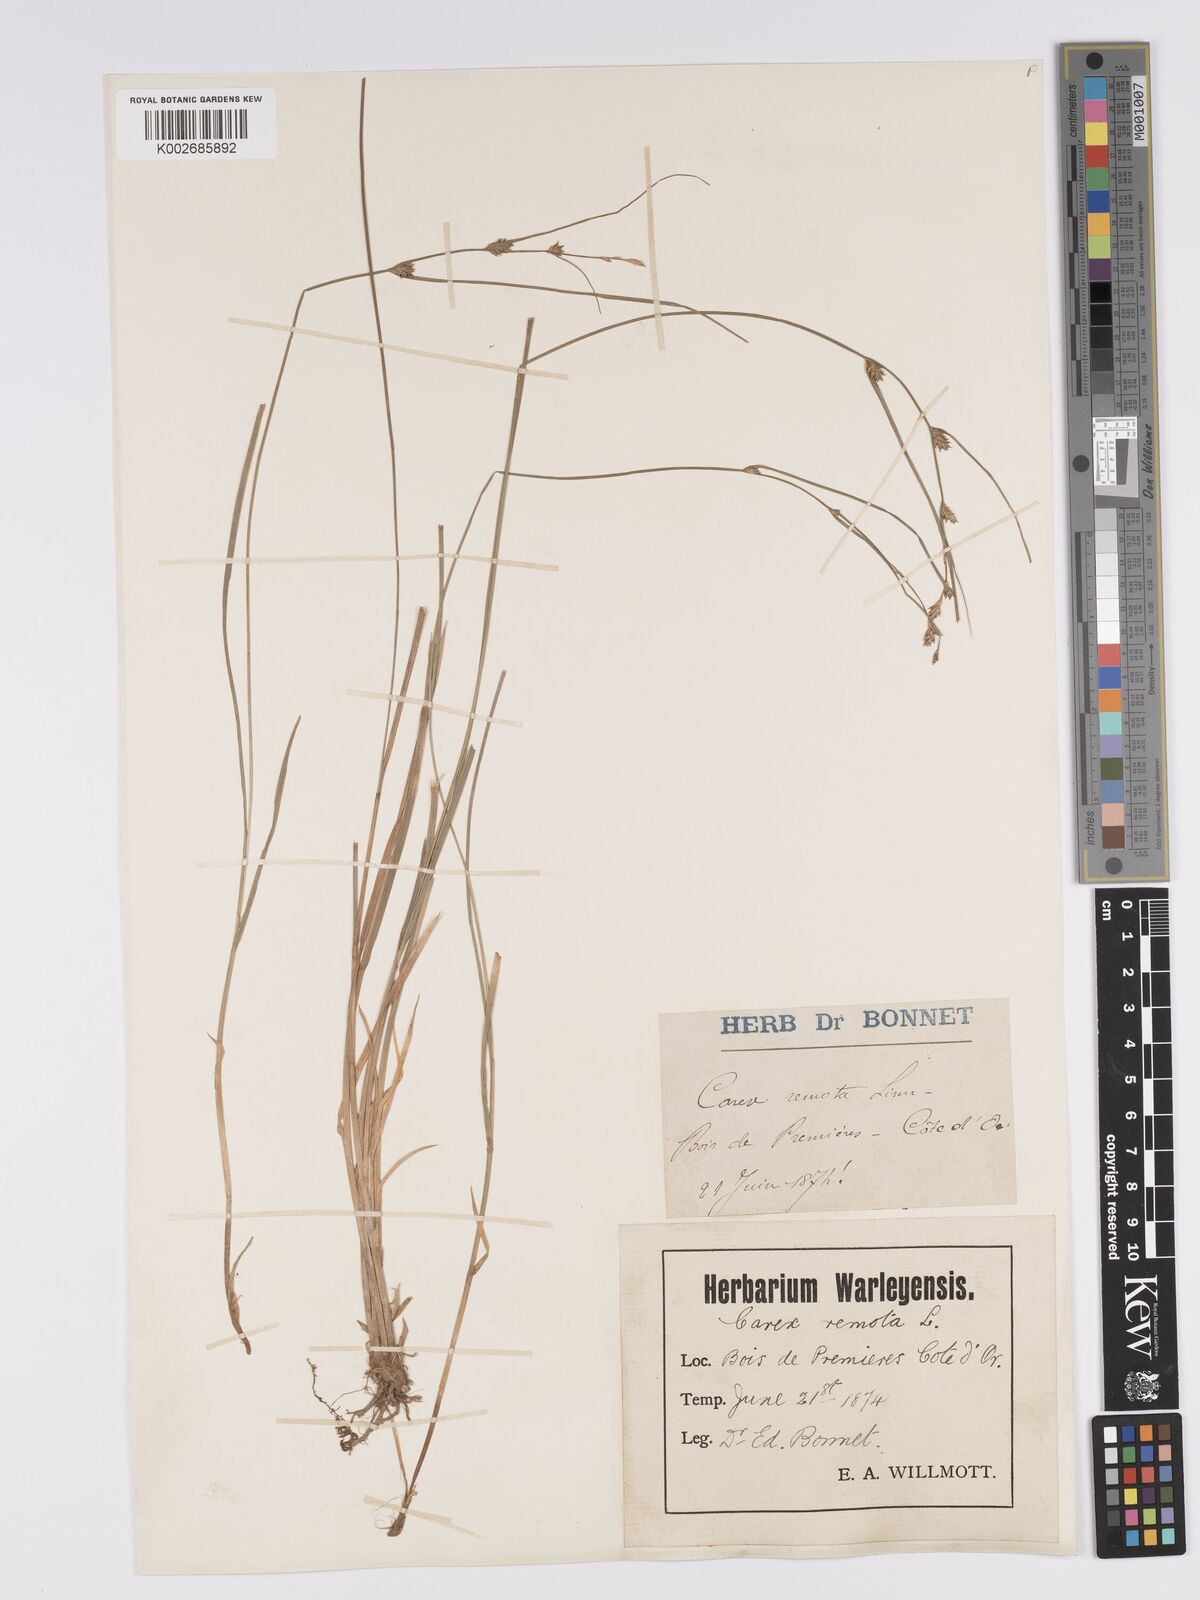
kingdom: Plantae
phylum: Tracheophyta
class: Liliopsida
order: Poales
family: Cyperaceae
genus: Carex
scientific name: Carex remota
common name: Remote sedge
